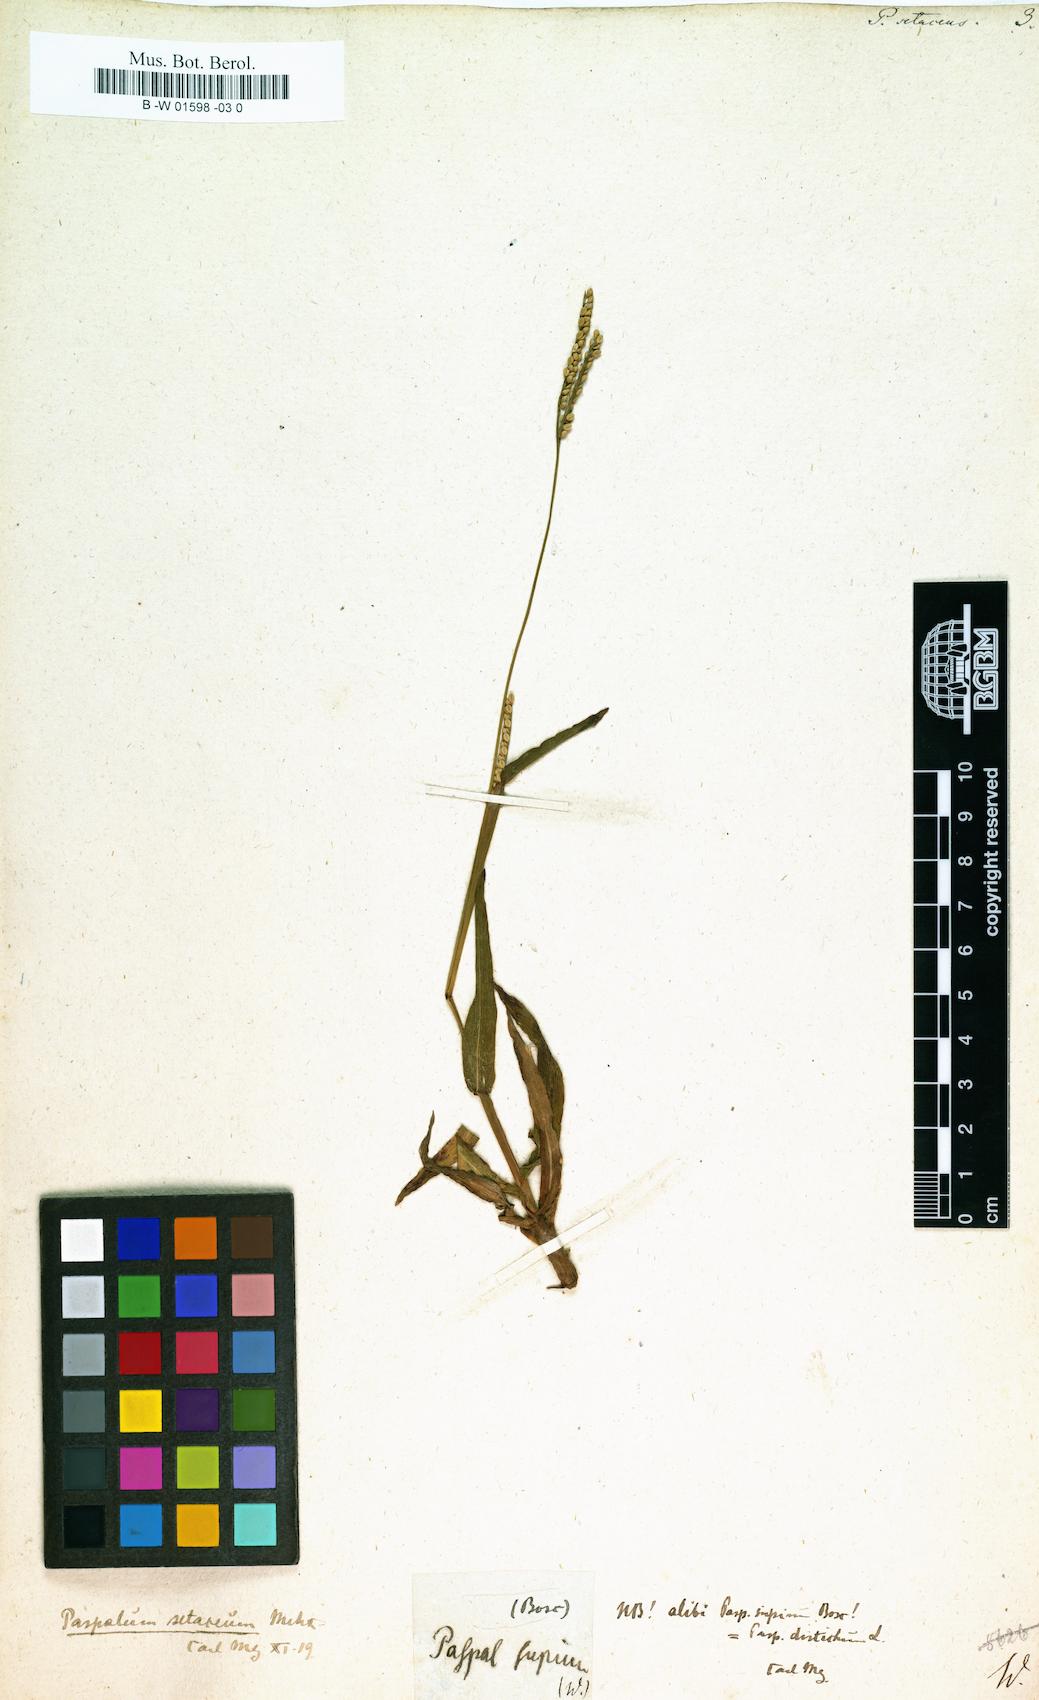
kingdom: Plantae
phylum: Tracheophyta
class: Liliopsida
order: Poales
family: Poaceae
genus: Paspalus
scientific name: Paspalus
